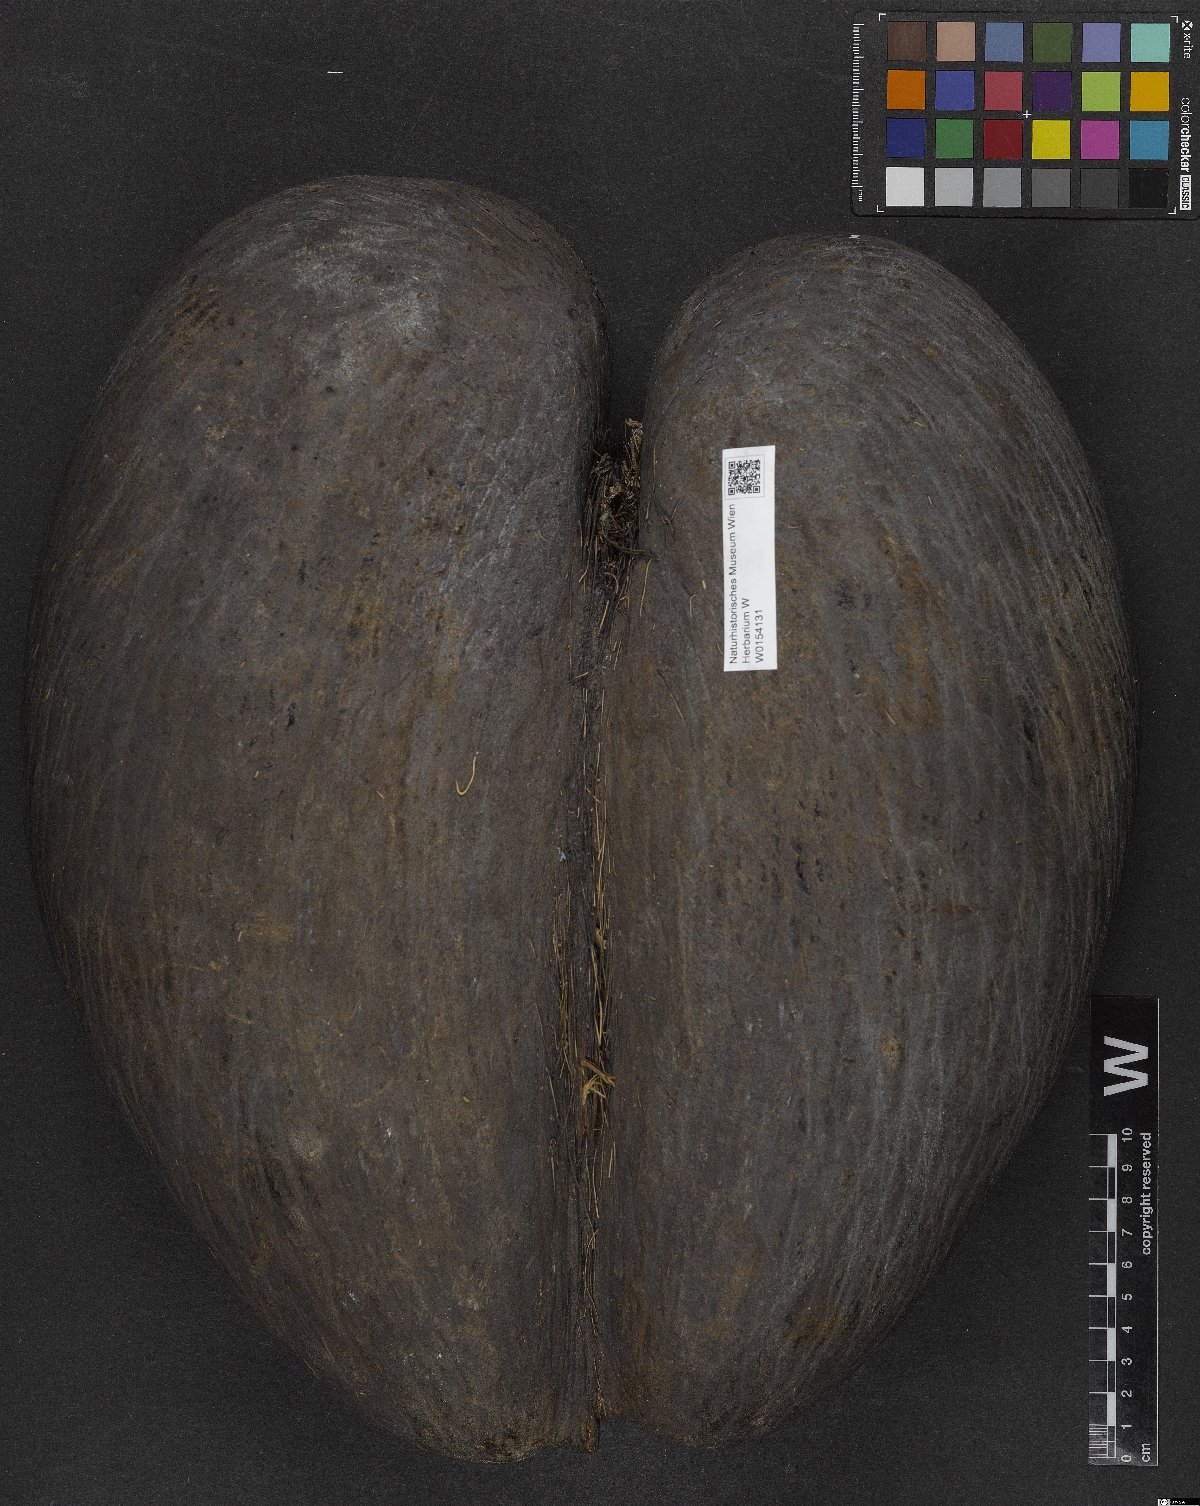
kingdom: Plantae
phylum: Tracheophyta
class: Liliopsida
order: Arecales
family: Arecaceae
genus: Lodoicea
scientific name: Lodoicea maldivica
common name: Double coconut palm
